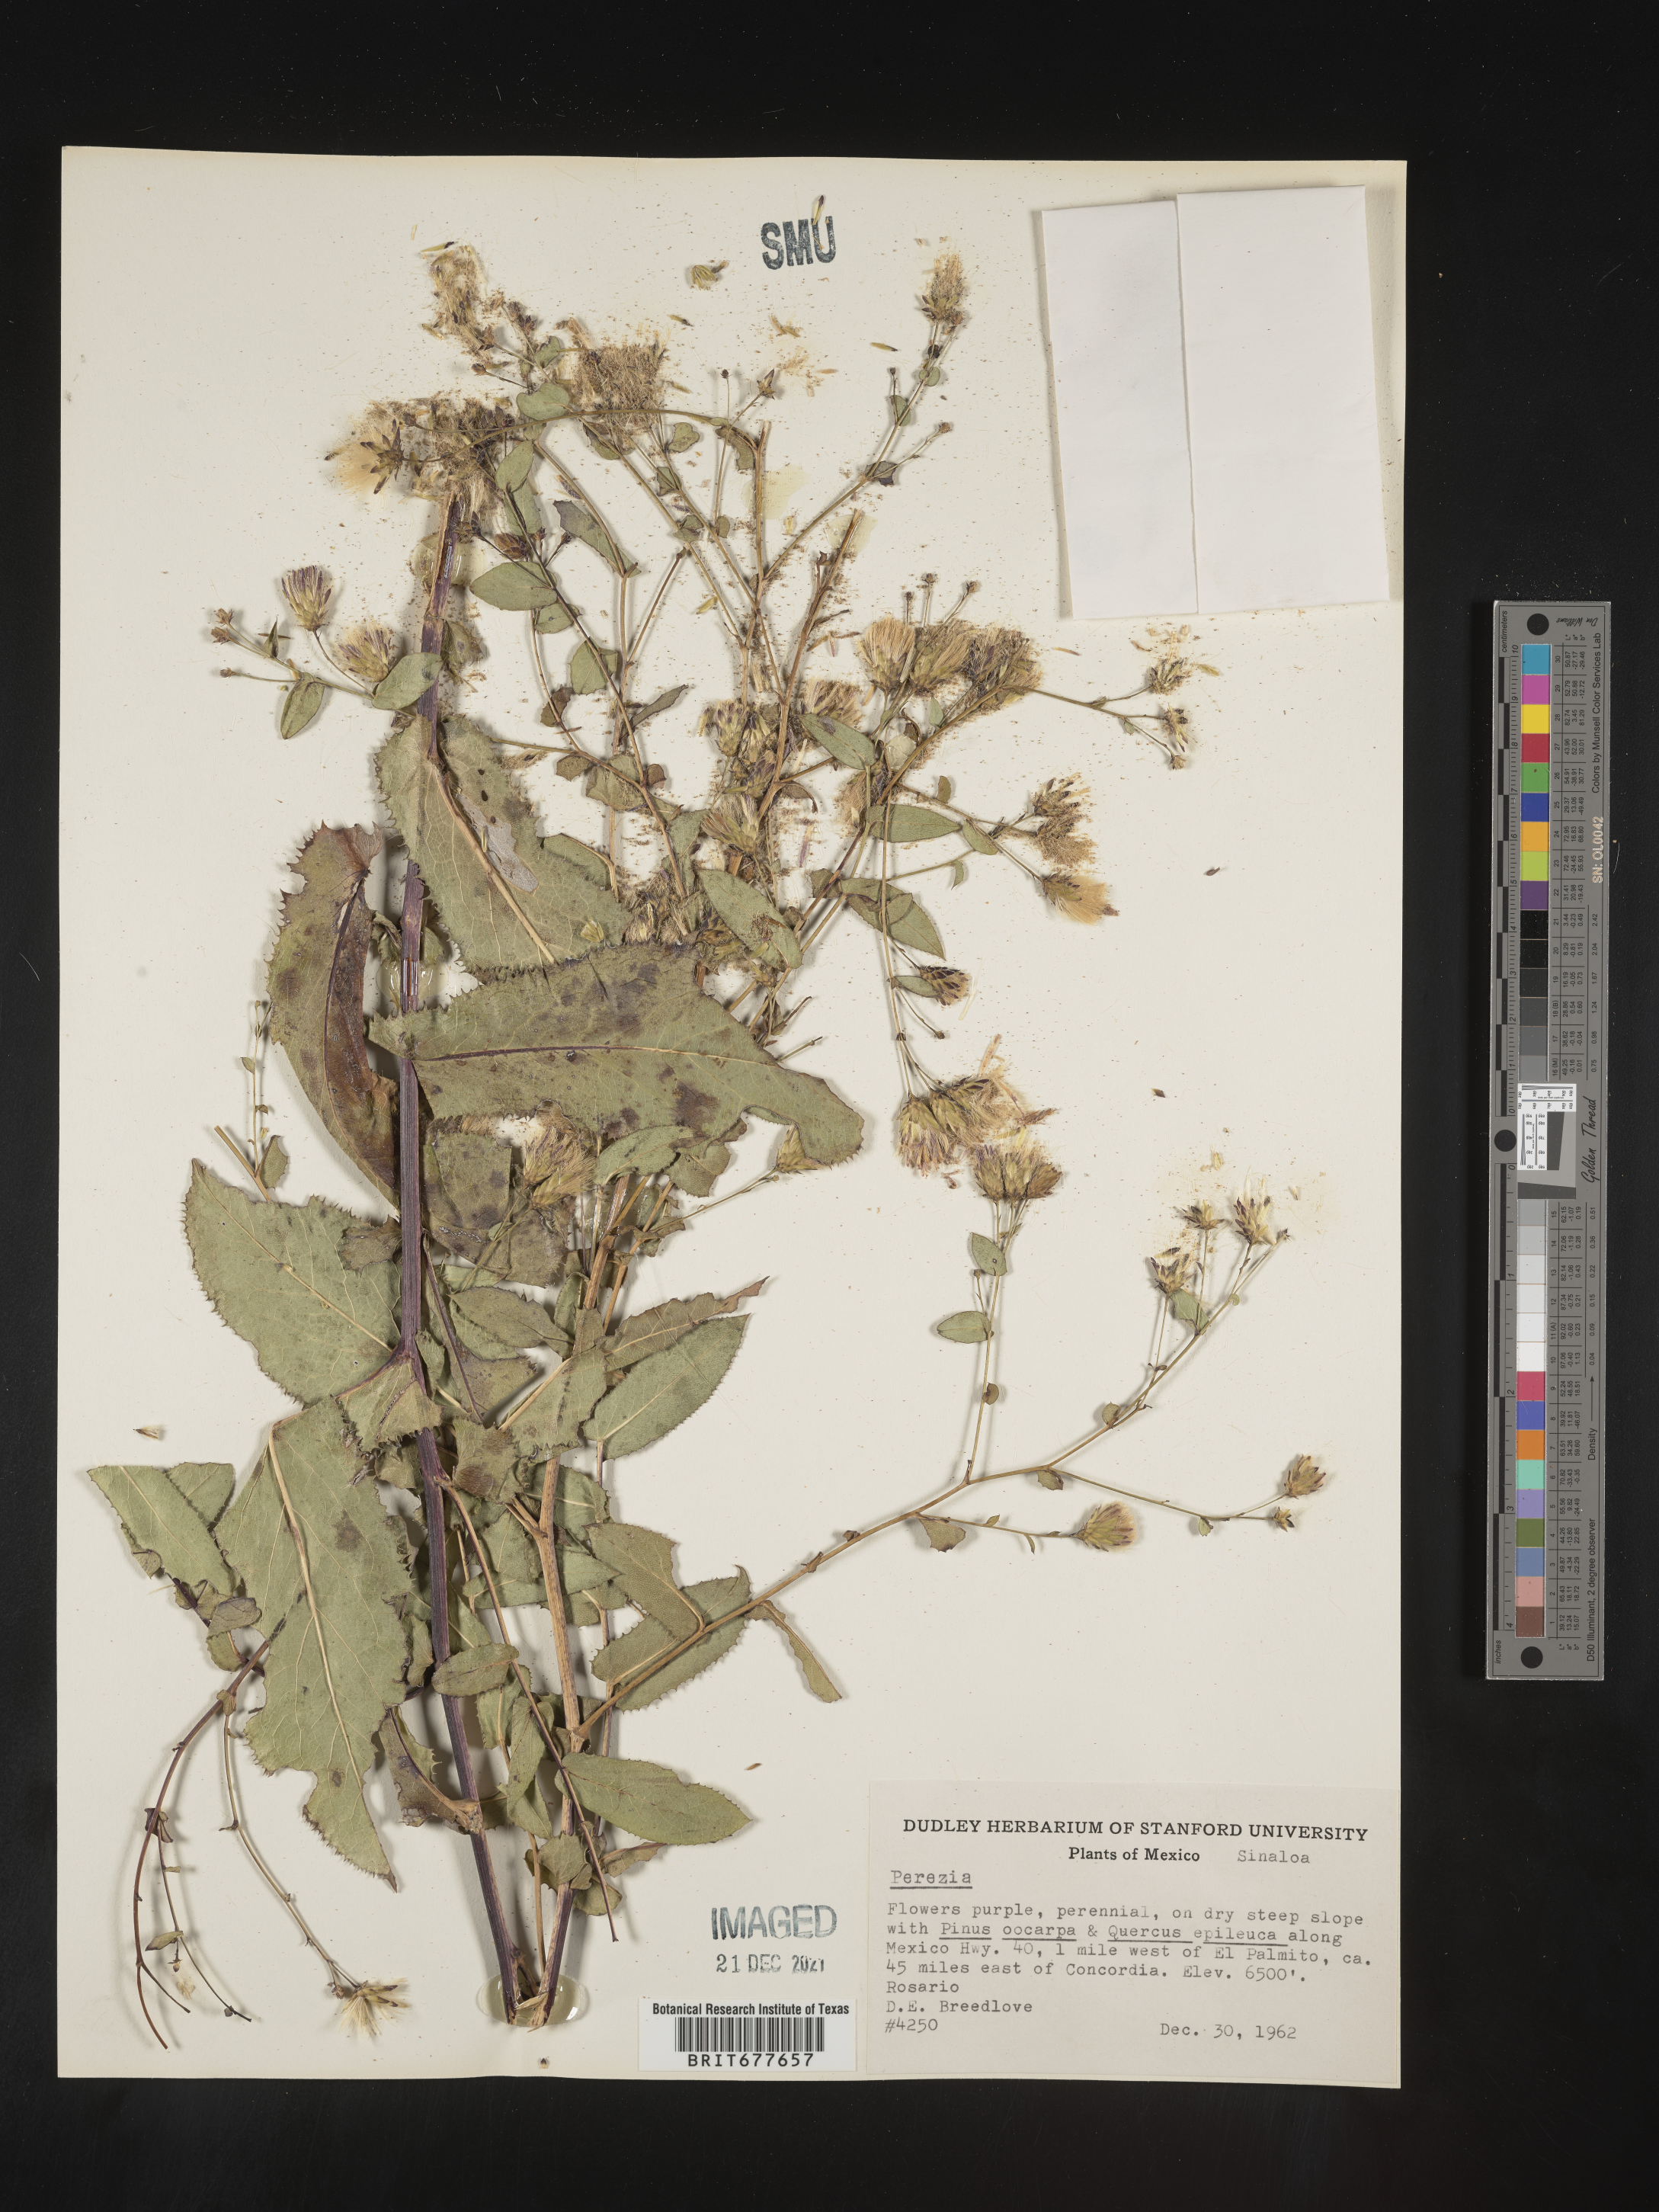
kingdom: Plantae
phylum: Tracheophyta
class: Magnoliopsida
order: Asterales
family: Asteraceae
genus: Perezia
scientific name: Perezia
